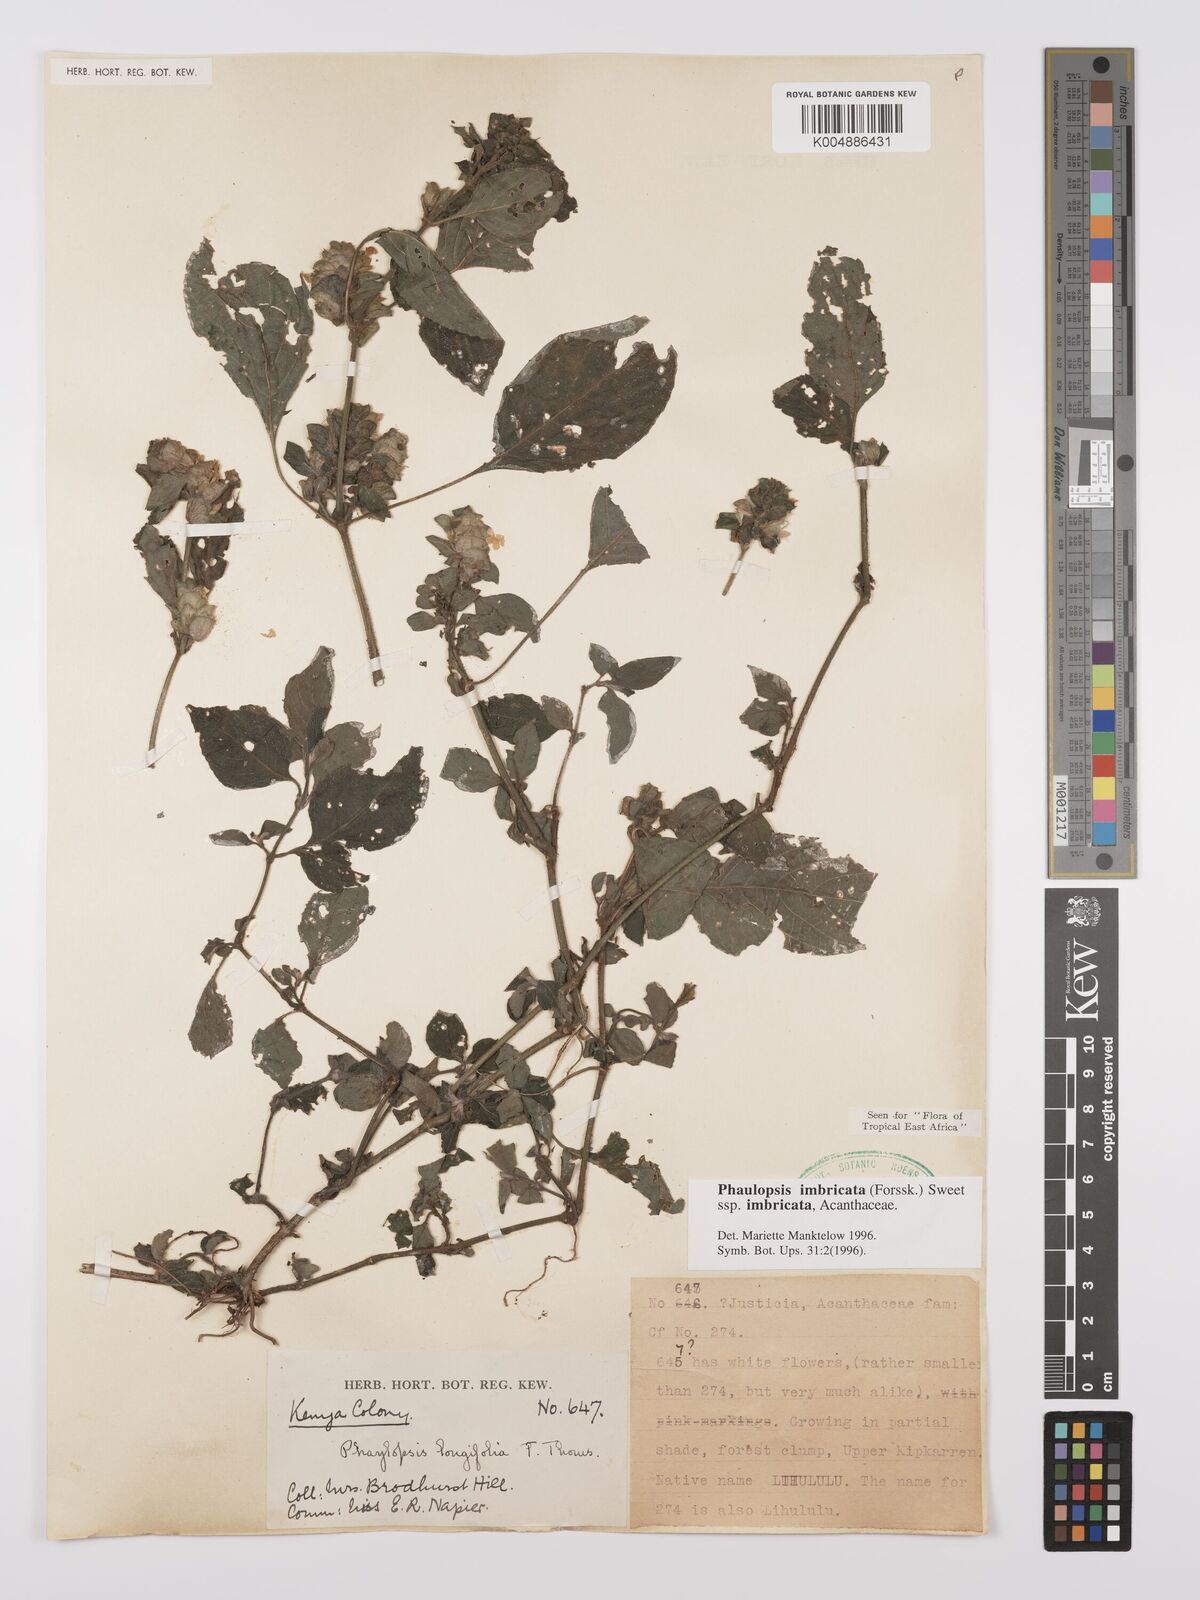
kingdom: Plantae
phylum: Tracheophyta
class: Magnoliopsida
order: Lamiales
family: Acanthaceae
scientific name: Acanthaceae
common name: Acanthaceae
